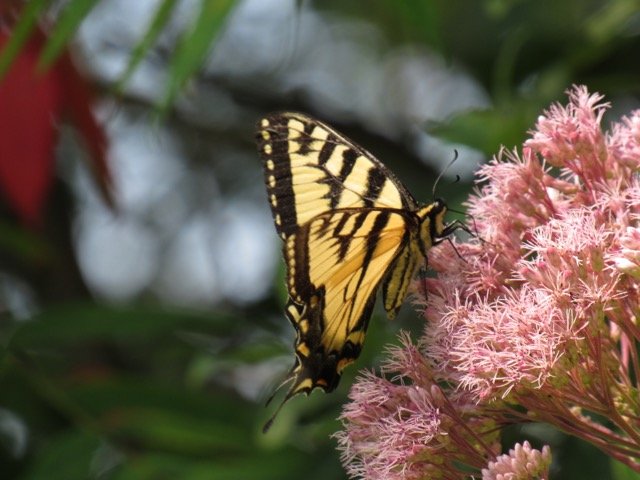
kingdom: Animalia
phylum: Arthropoda
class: Insecta
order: Lepidoptera
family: Papilionidae
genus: Pterourus
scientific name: Pterourus
